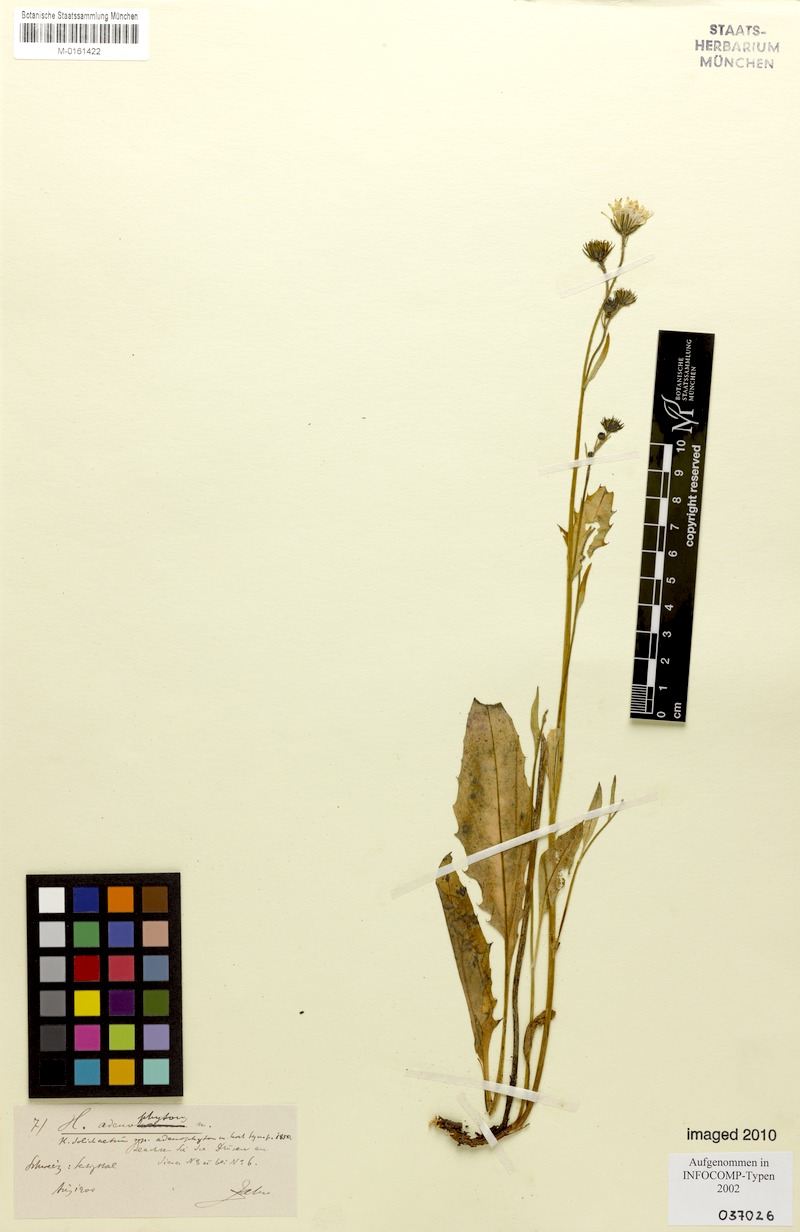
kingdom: Plantae
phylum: Tracheophyta
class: Magnoliopsida
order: Asterales
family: Asteraceae
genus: Hieracium
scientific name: Hieracium adenophyton
